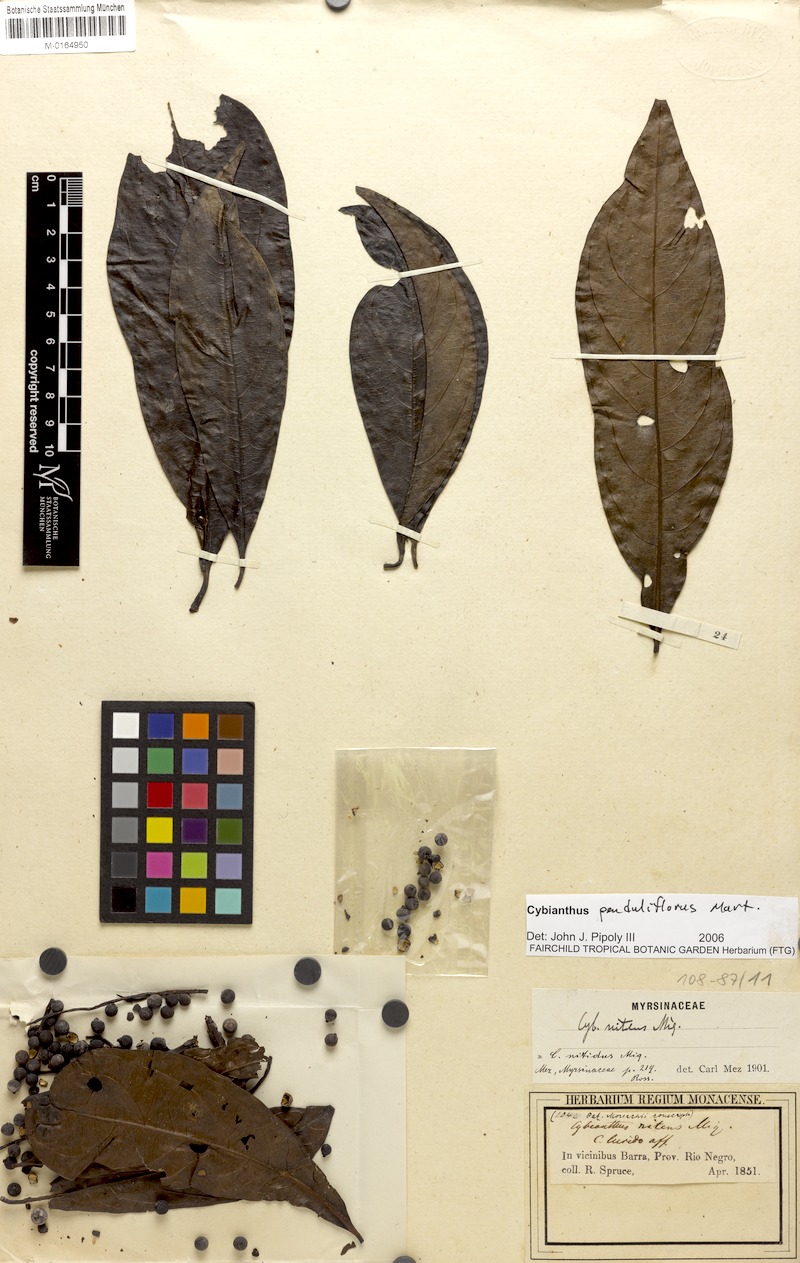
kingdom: Plantae
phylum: Tracheophyta
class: Magnoliopsida
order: Ericales
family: Primulaceae
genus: Cybianthus
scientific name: Cybianthus penduliflorus
